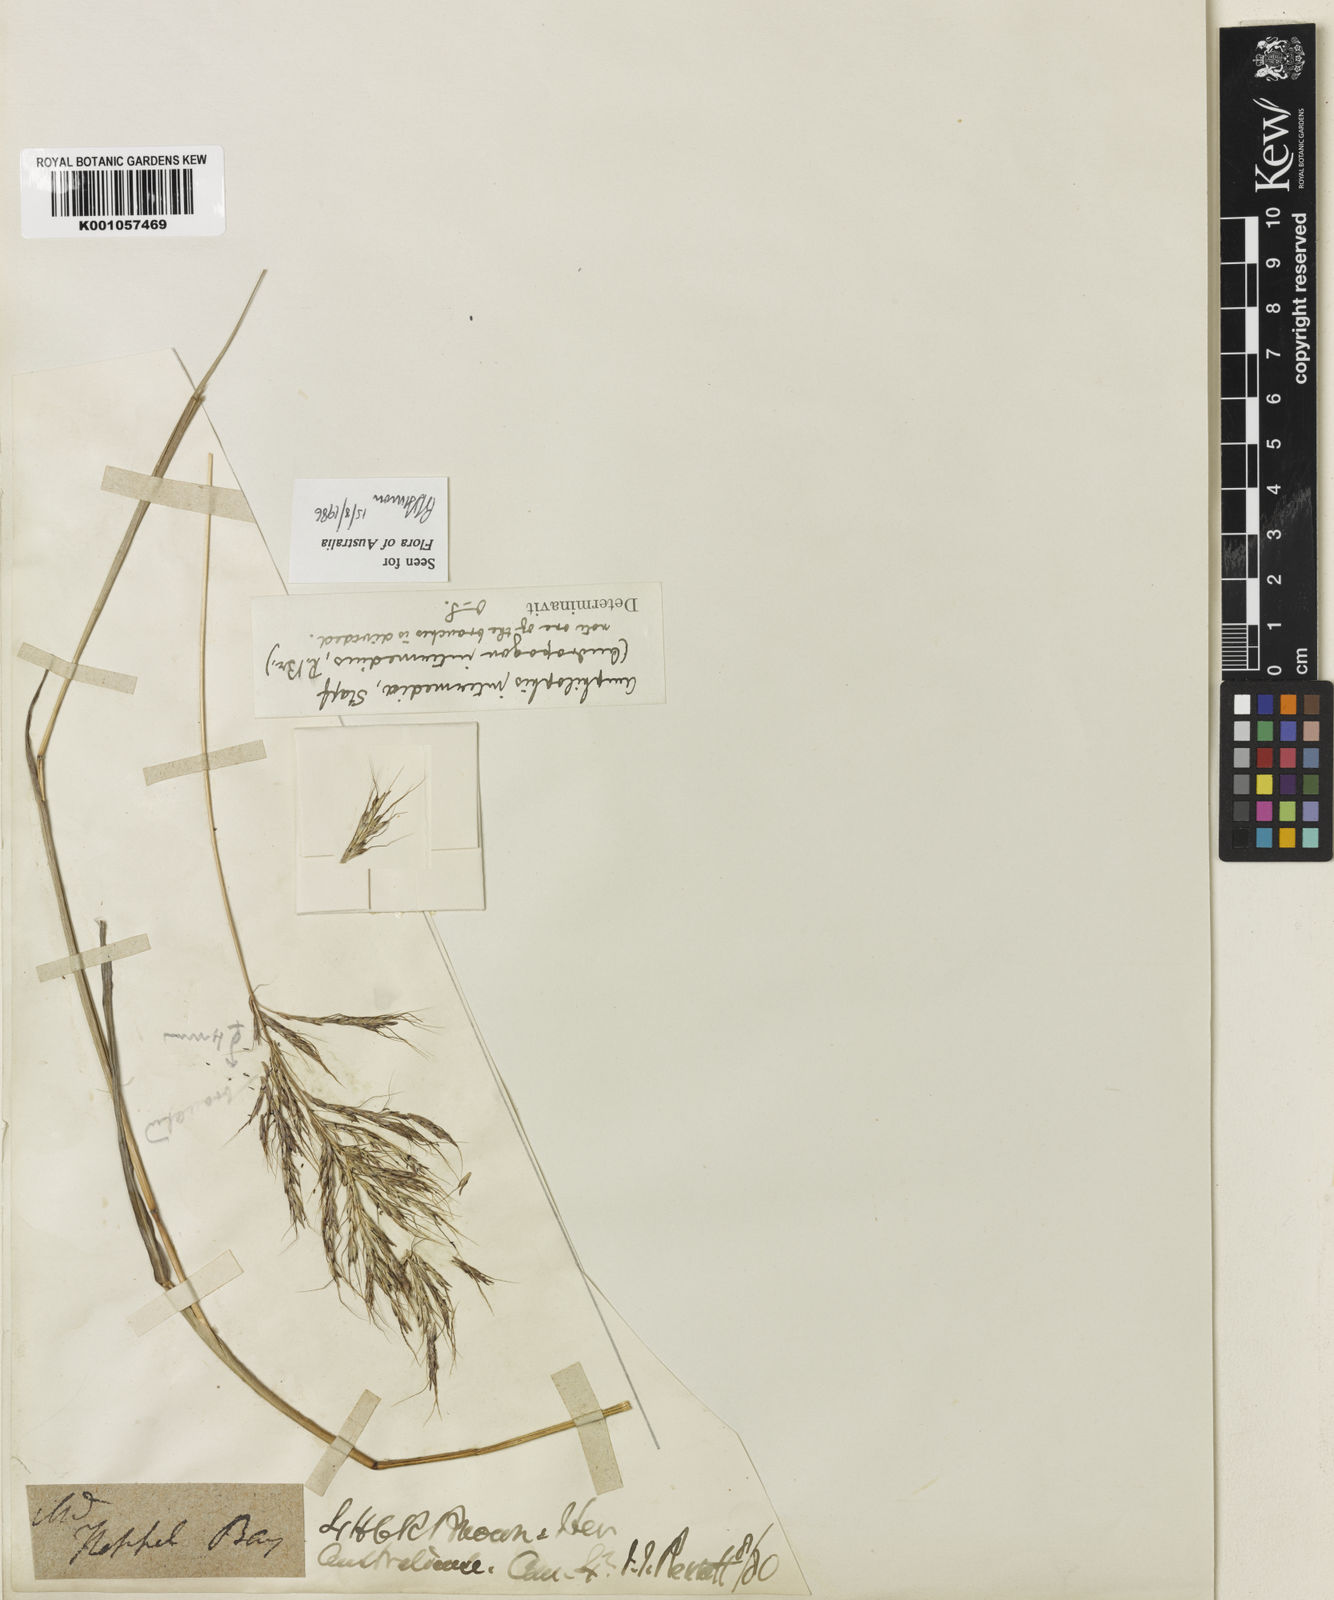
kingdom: Plantae
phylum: Tracheophyta
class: Liliopsida
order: Poales
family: Poaceae
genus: Bothriochloa
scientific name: Bothriochloa bladhii
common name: Caucasian bluestem
